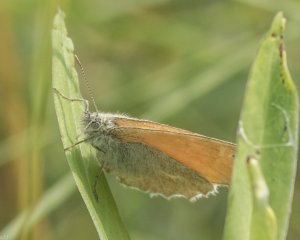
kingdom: Animalia
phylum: Arthropoda
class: Insecta
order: Lepidoptera
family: Nymphalidae
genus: Coenonympha
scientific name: Coenonympha tullia
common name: Large Heath
